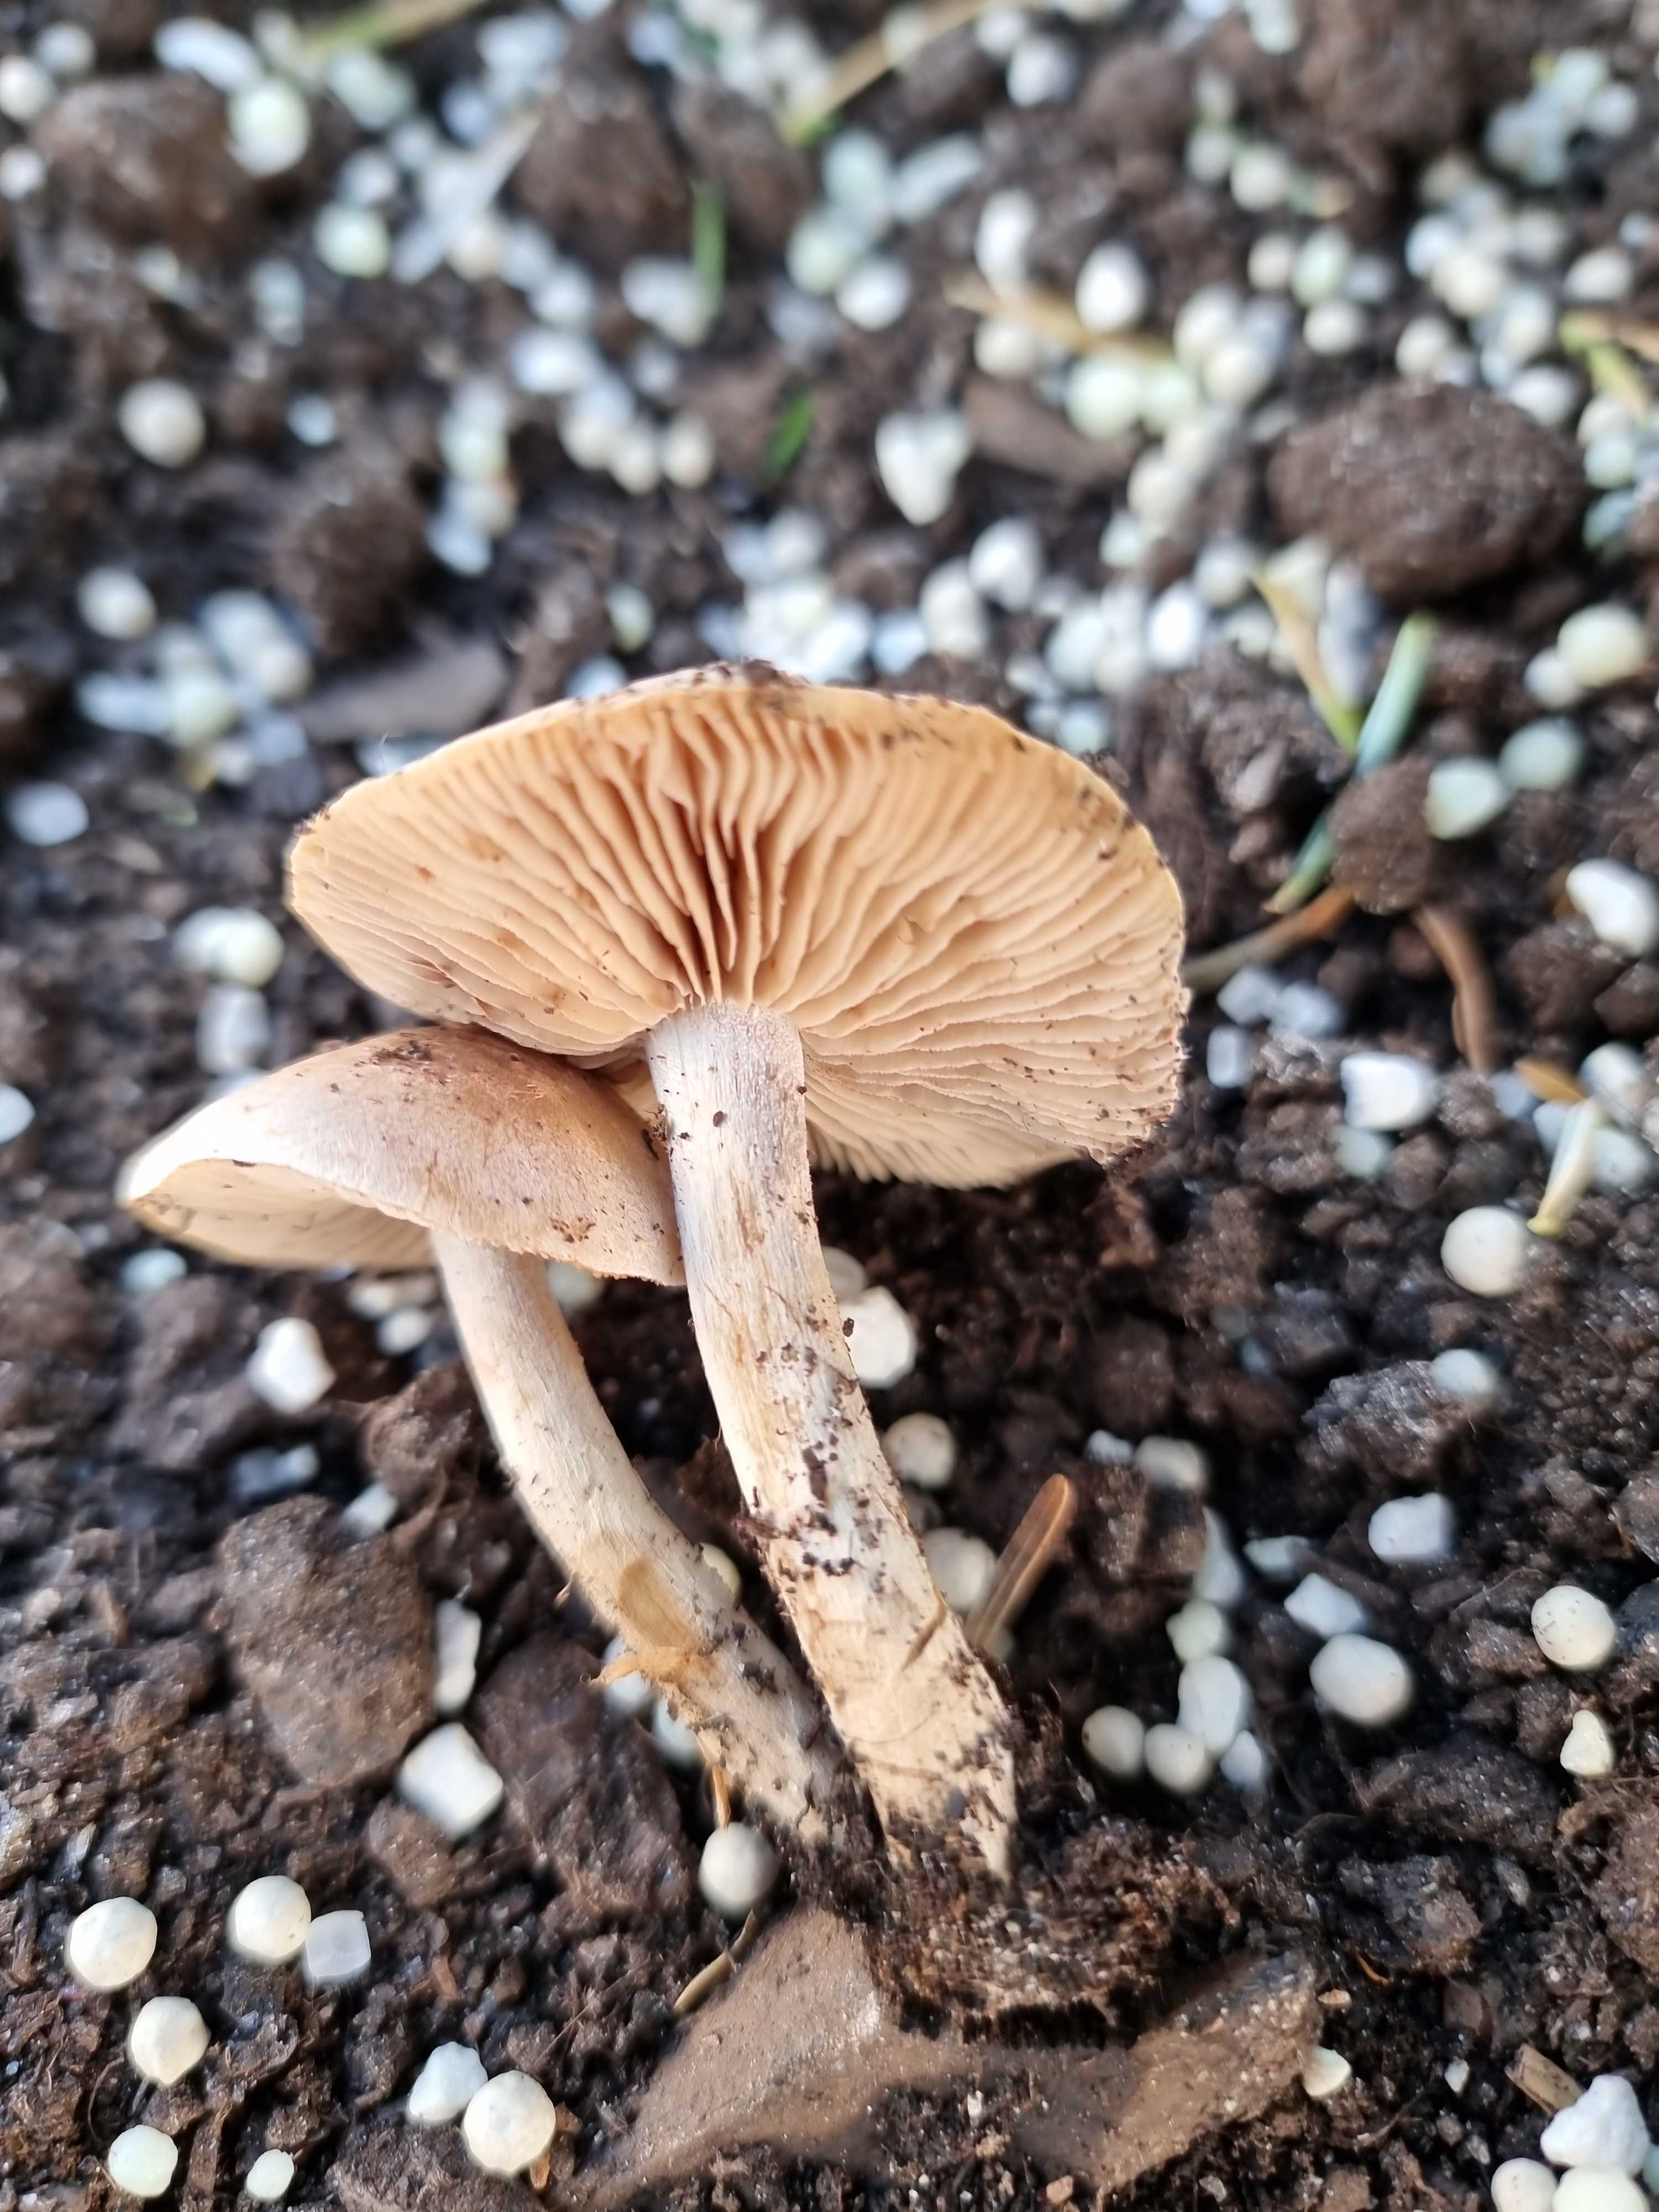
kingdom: Fungi
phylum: Basidiomycota
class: Agaricomycetes
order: Agaricales
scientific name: Agaricales
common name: champignonordenen
